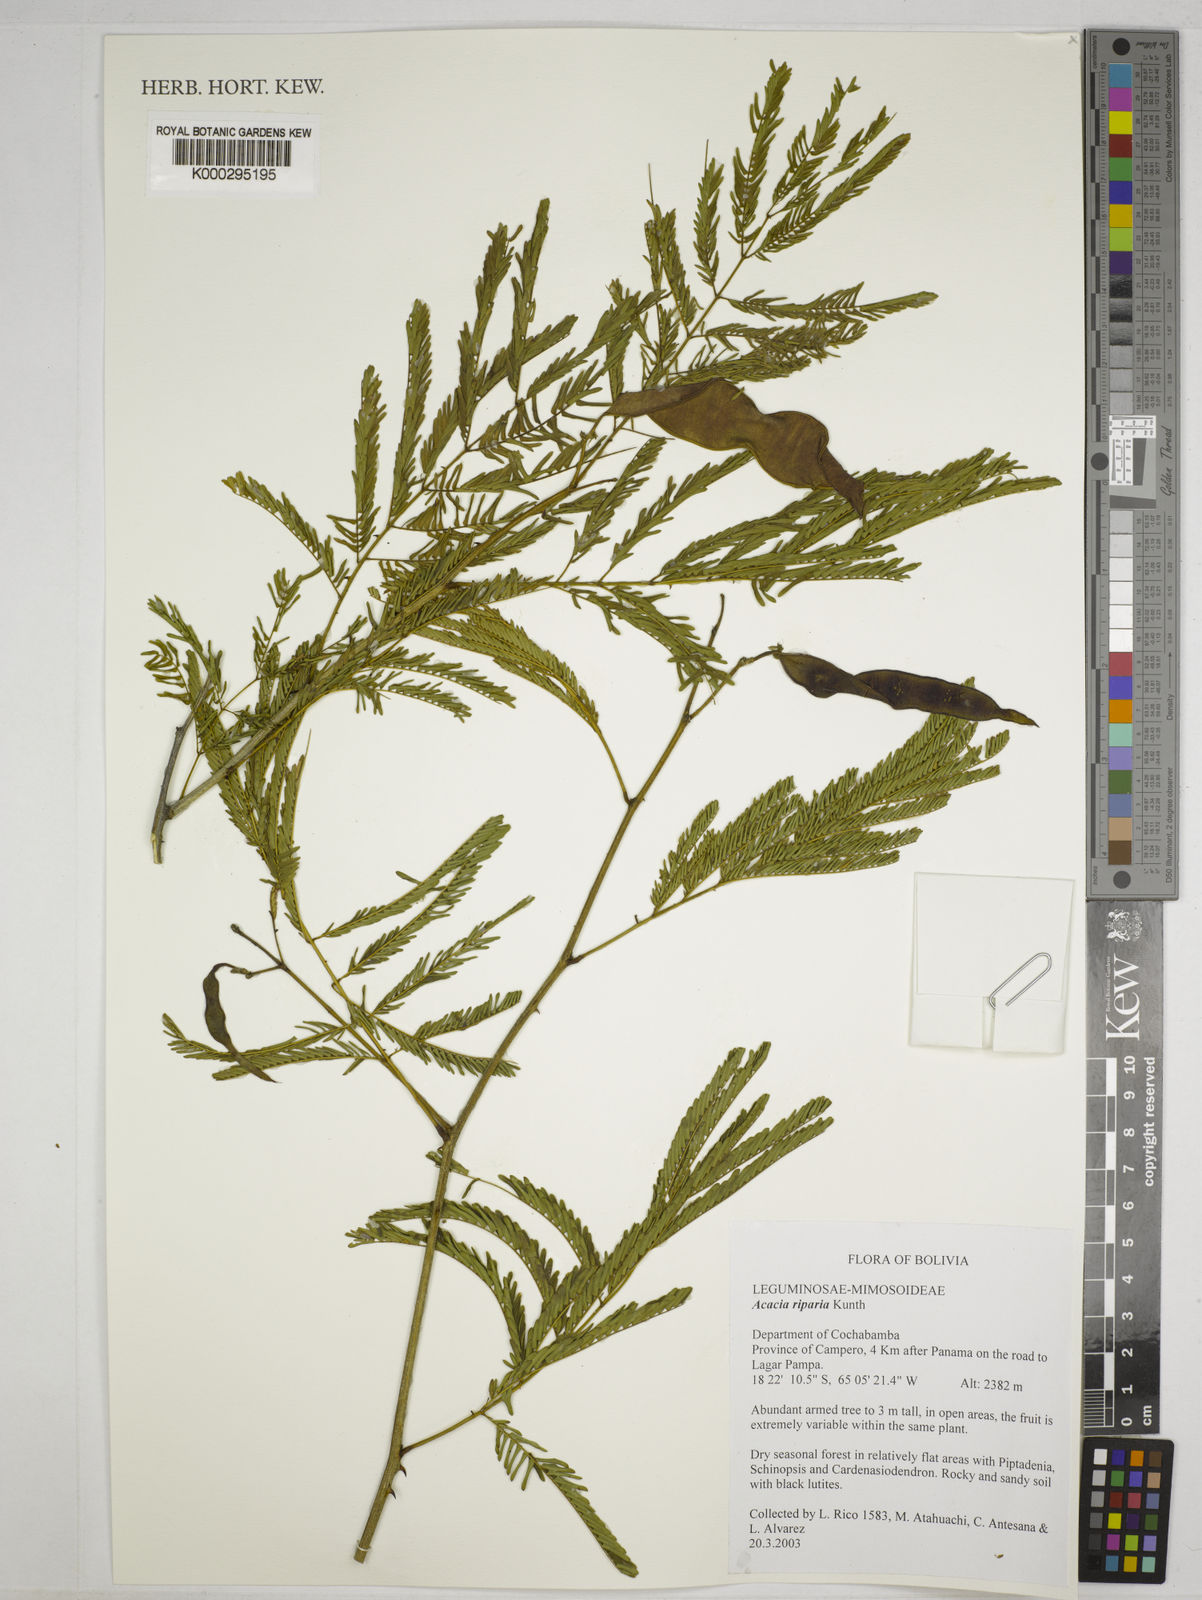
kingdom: Plantae
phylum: Tracheophyta
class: Magnoliopsida
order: Fabales
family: Fabaceae
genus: Senegalia
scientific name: Senegalia riparia
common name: Catch-and-keep
